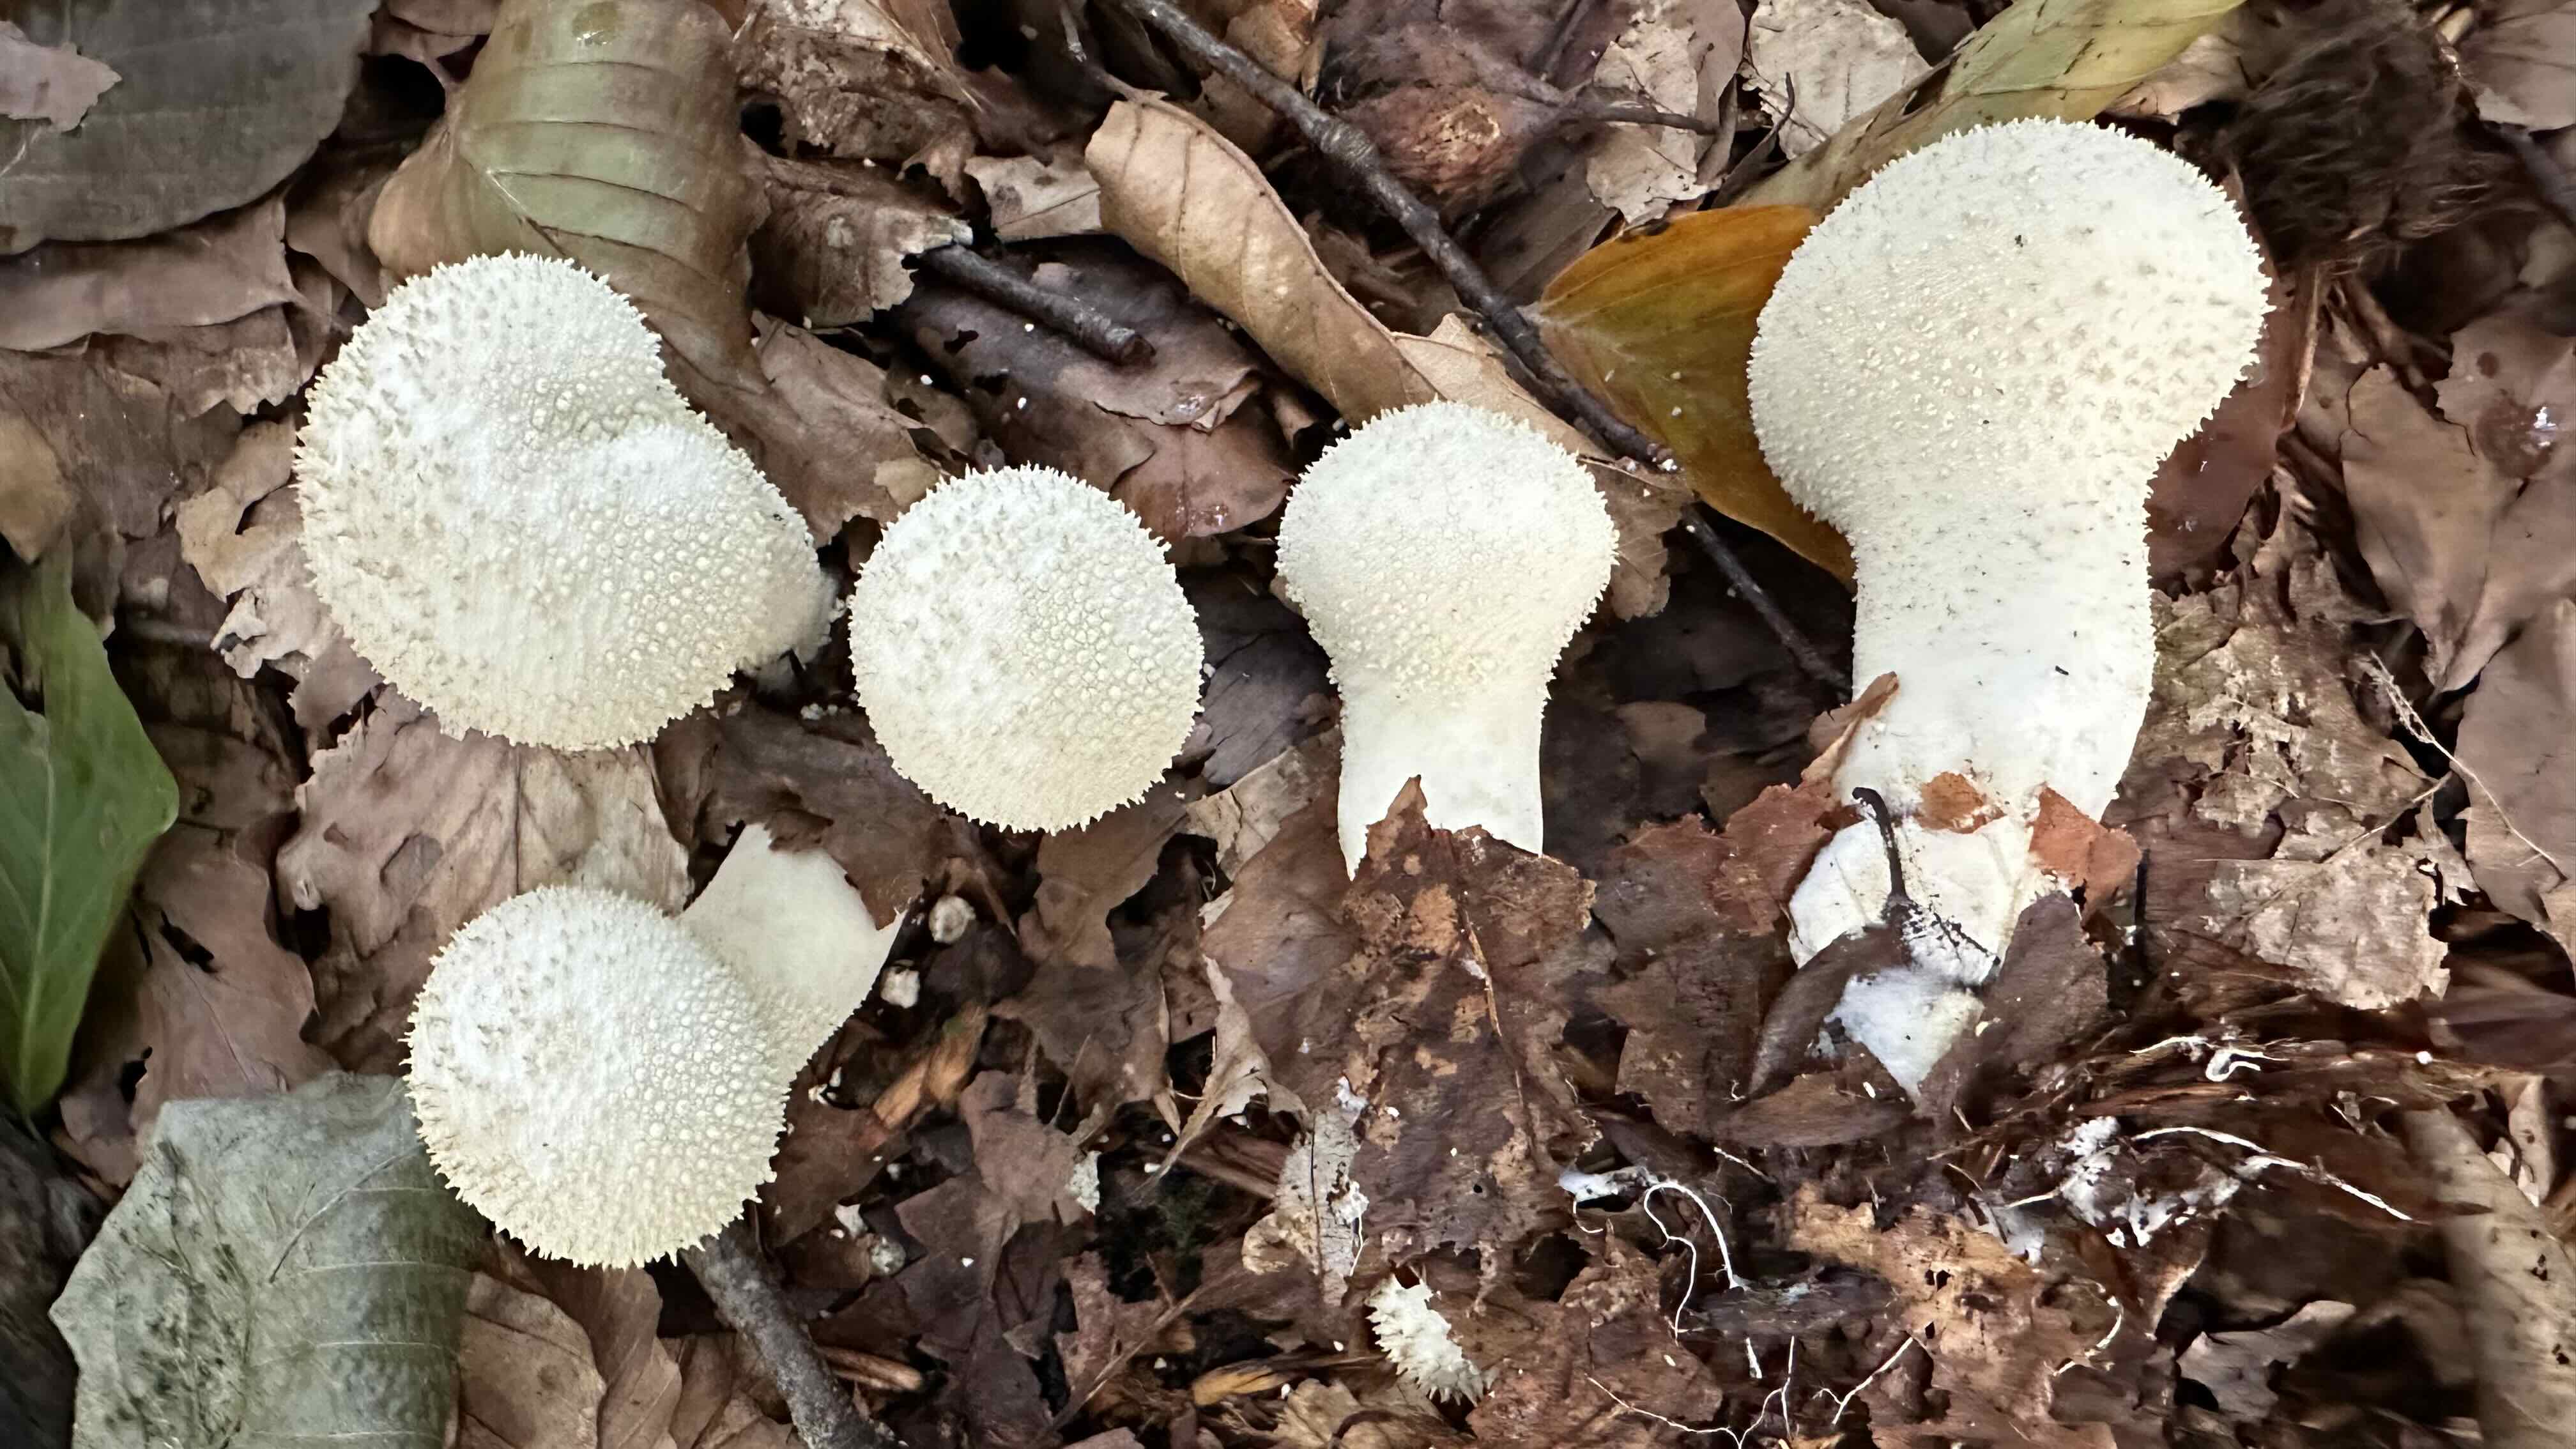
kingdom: Fungi
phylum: Basidiomycota
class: Agaricomycetes
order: Agaricales
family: Lycoperdaceae
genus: Lycoperdon
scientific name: Lycoperdon perlatum
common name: krystal-støvbold
